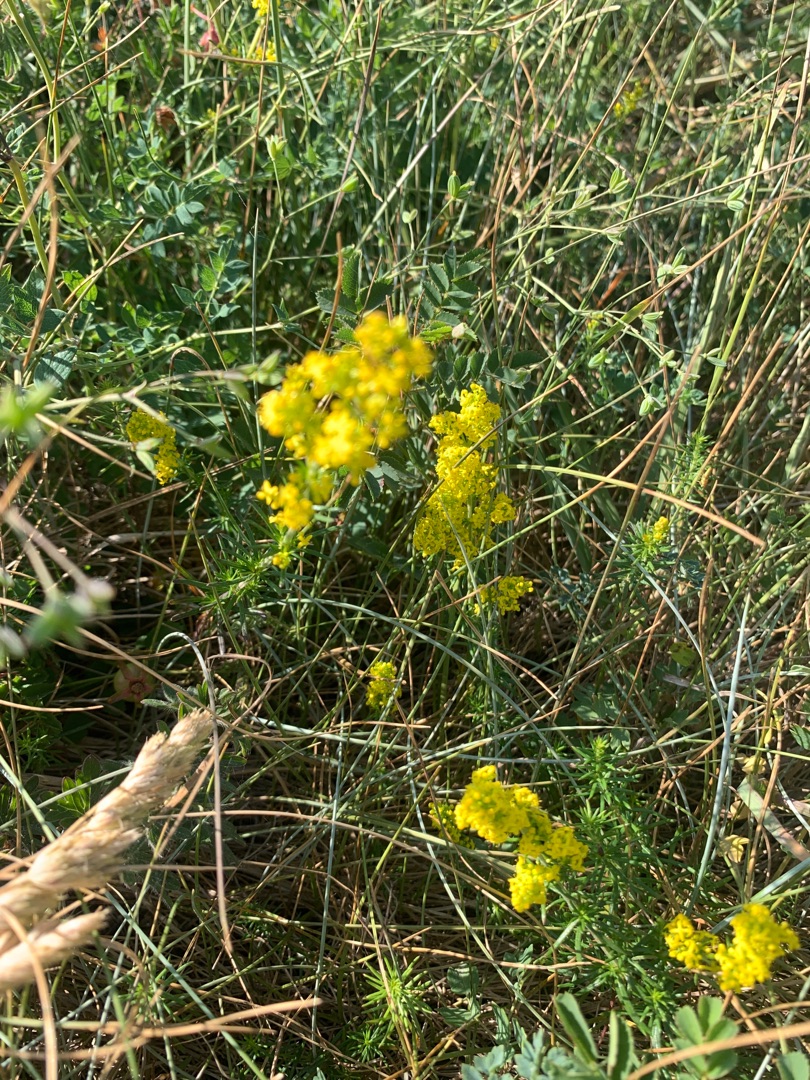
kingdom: Plantae
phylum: Tracheophyta
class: Magnoliopsida
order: Gentianales
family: Rubiaceae
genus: Galium
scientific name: Galium verum
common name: Gul snerre
